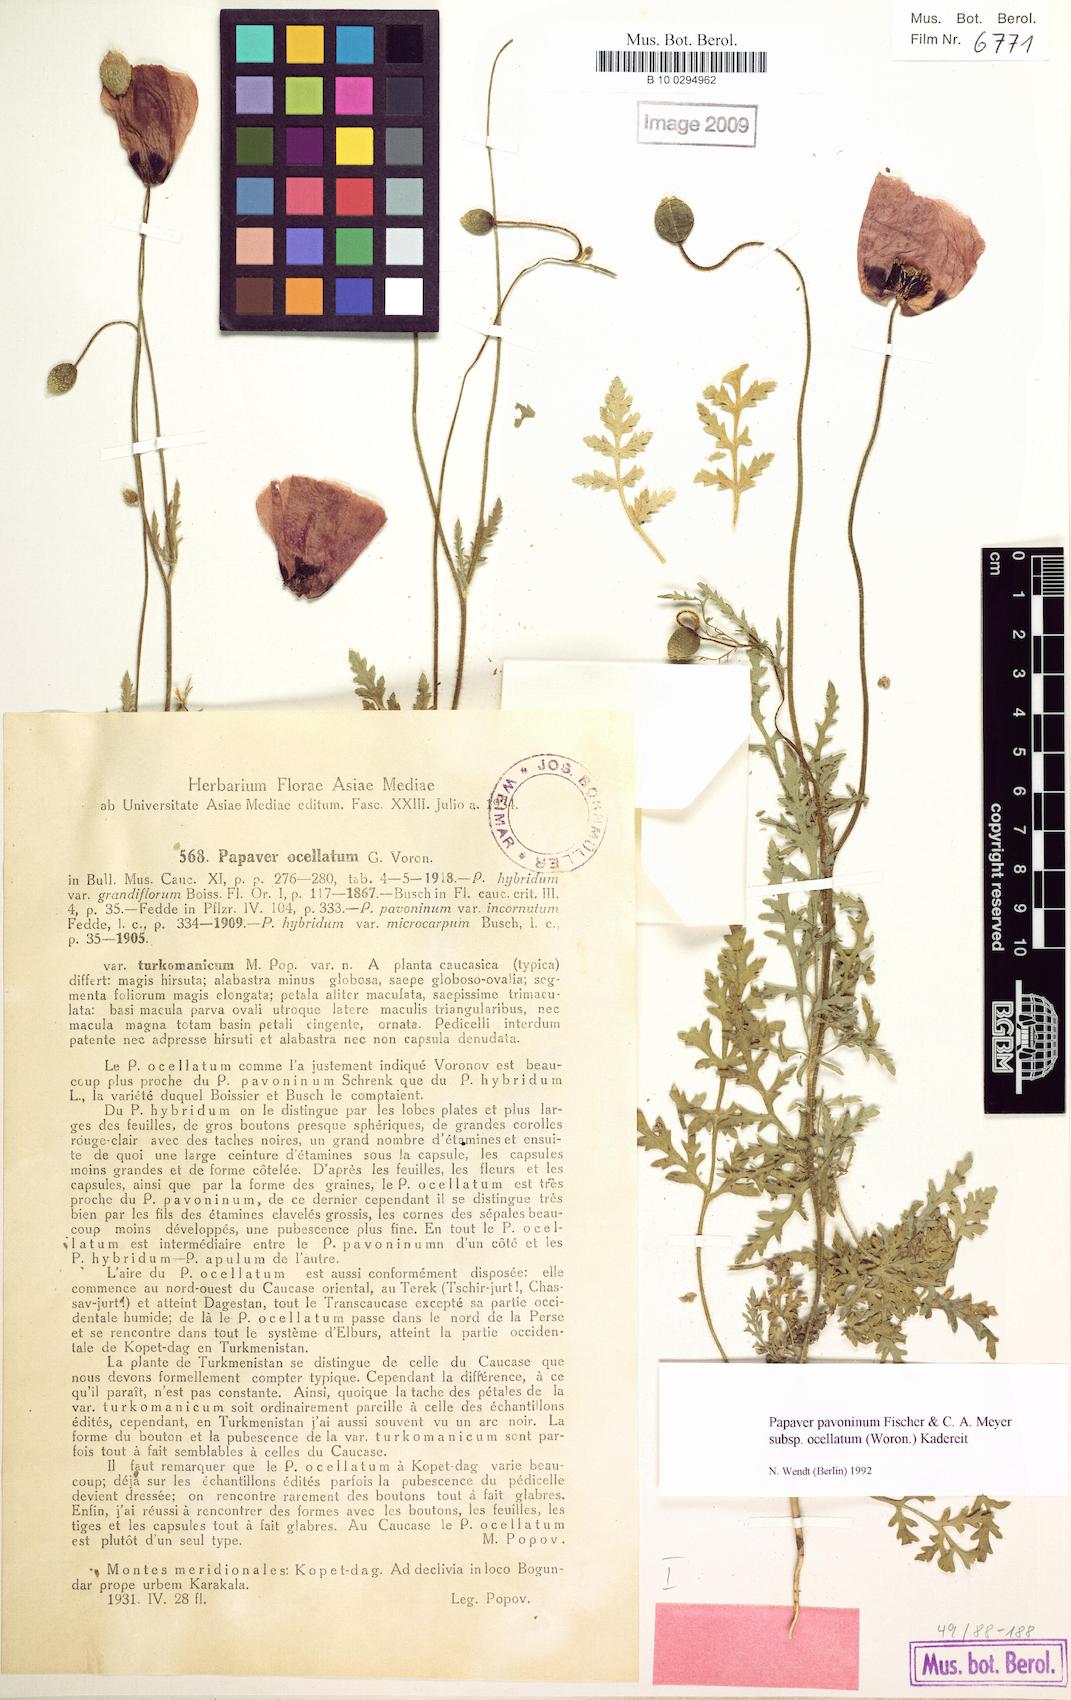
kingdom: Plantae
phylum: Tracheophyta
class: Magnoliopsida
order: Ranunculales
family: Papaveraceae
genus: Roemeria
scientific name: Roemeria ocellata
